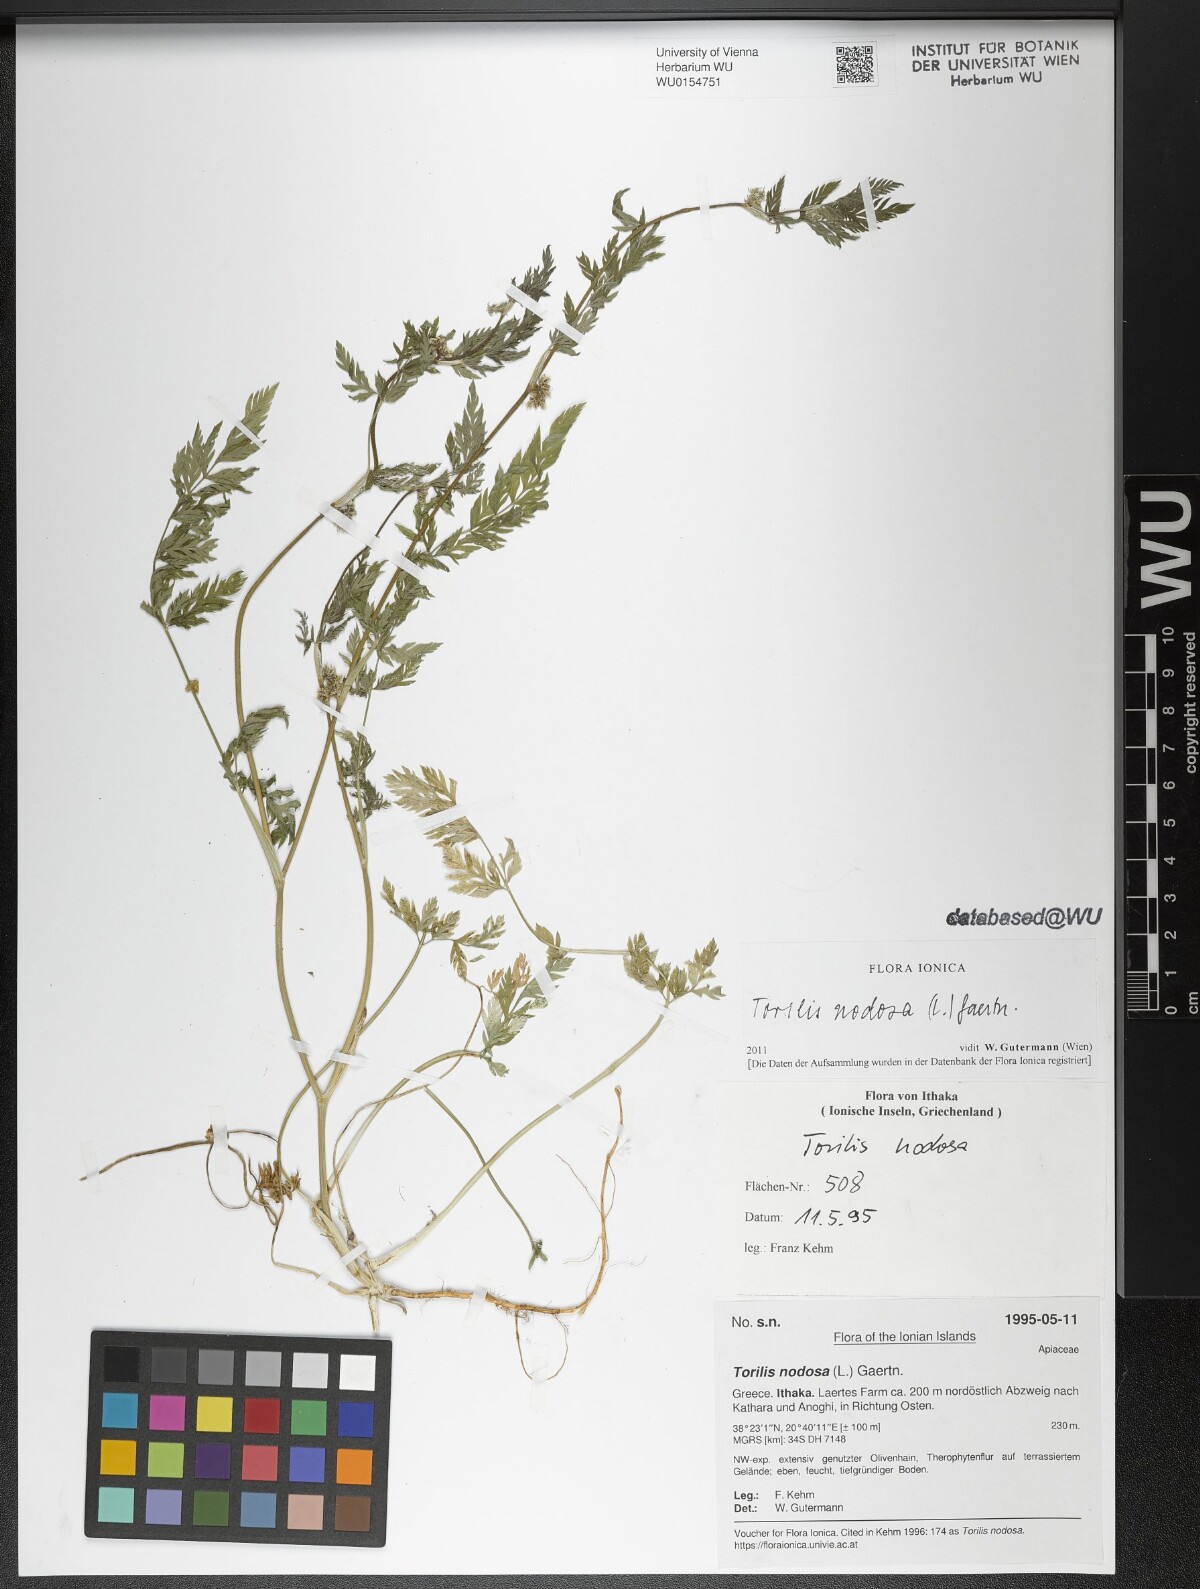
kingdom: Plantae
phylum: Tracheophyta
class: Magnoliopsida
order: Apiales
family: Apiaceae
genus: Torilis
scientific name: Torilis nodosa
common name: Knotted hedge-parsley
